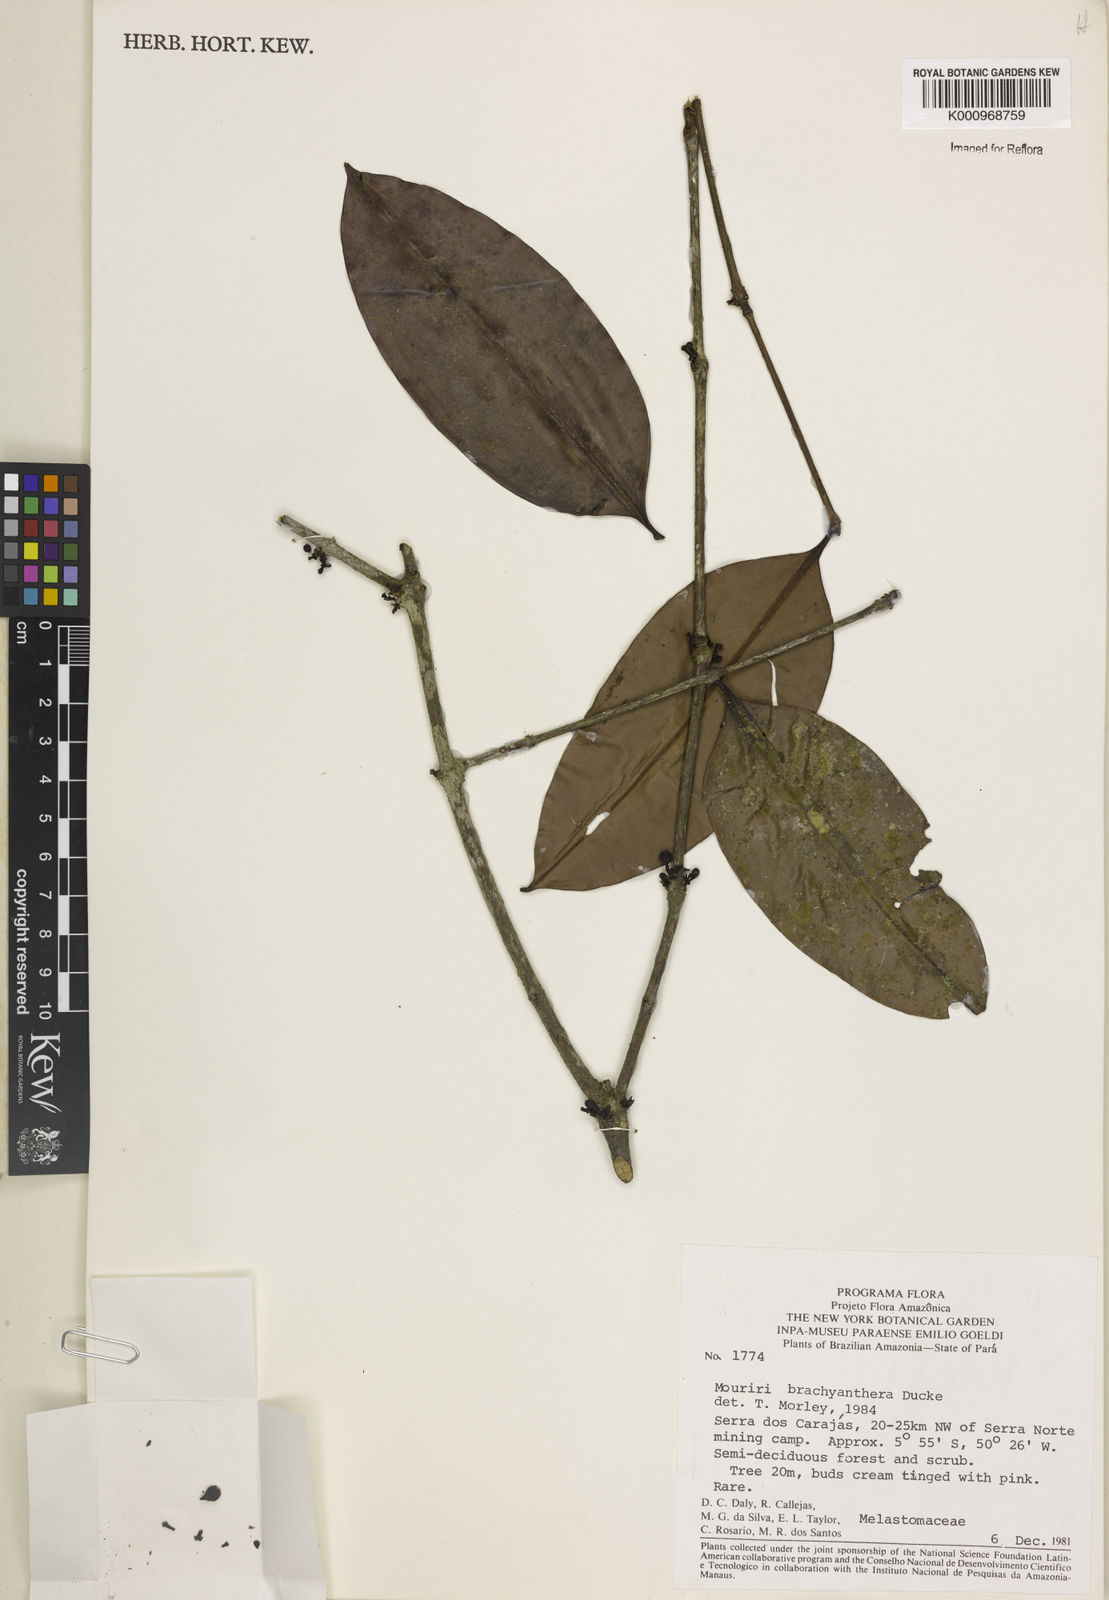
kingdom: Plantae
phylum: Tracheophyta
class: Magnoliopsida
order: Myrtales
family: Melastomataceae
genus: Mouriri
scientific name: Mouriri brachyanthera
